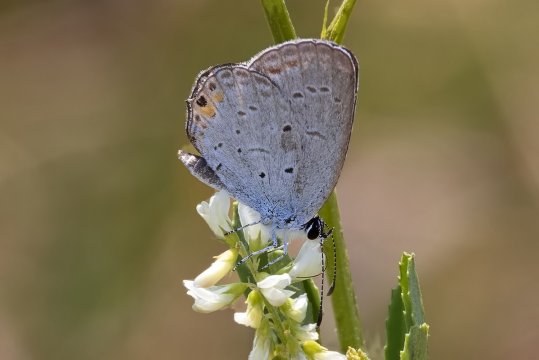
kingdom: Animalia
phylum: Arthropoda
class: Insecta
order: Lepidoptera
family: Lycaenidae
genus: Elkalyce
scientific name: Elkalyce comyntas
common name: Eastern Tailed-Blue
